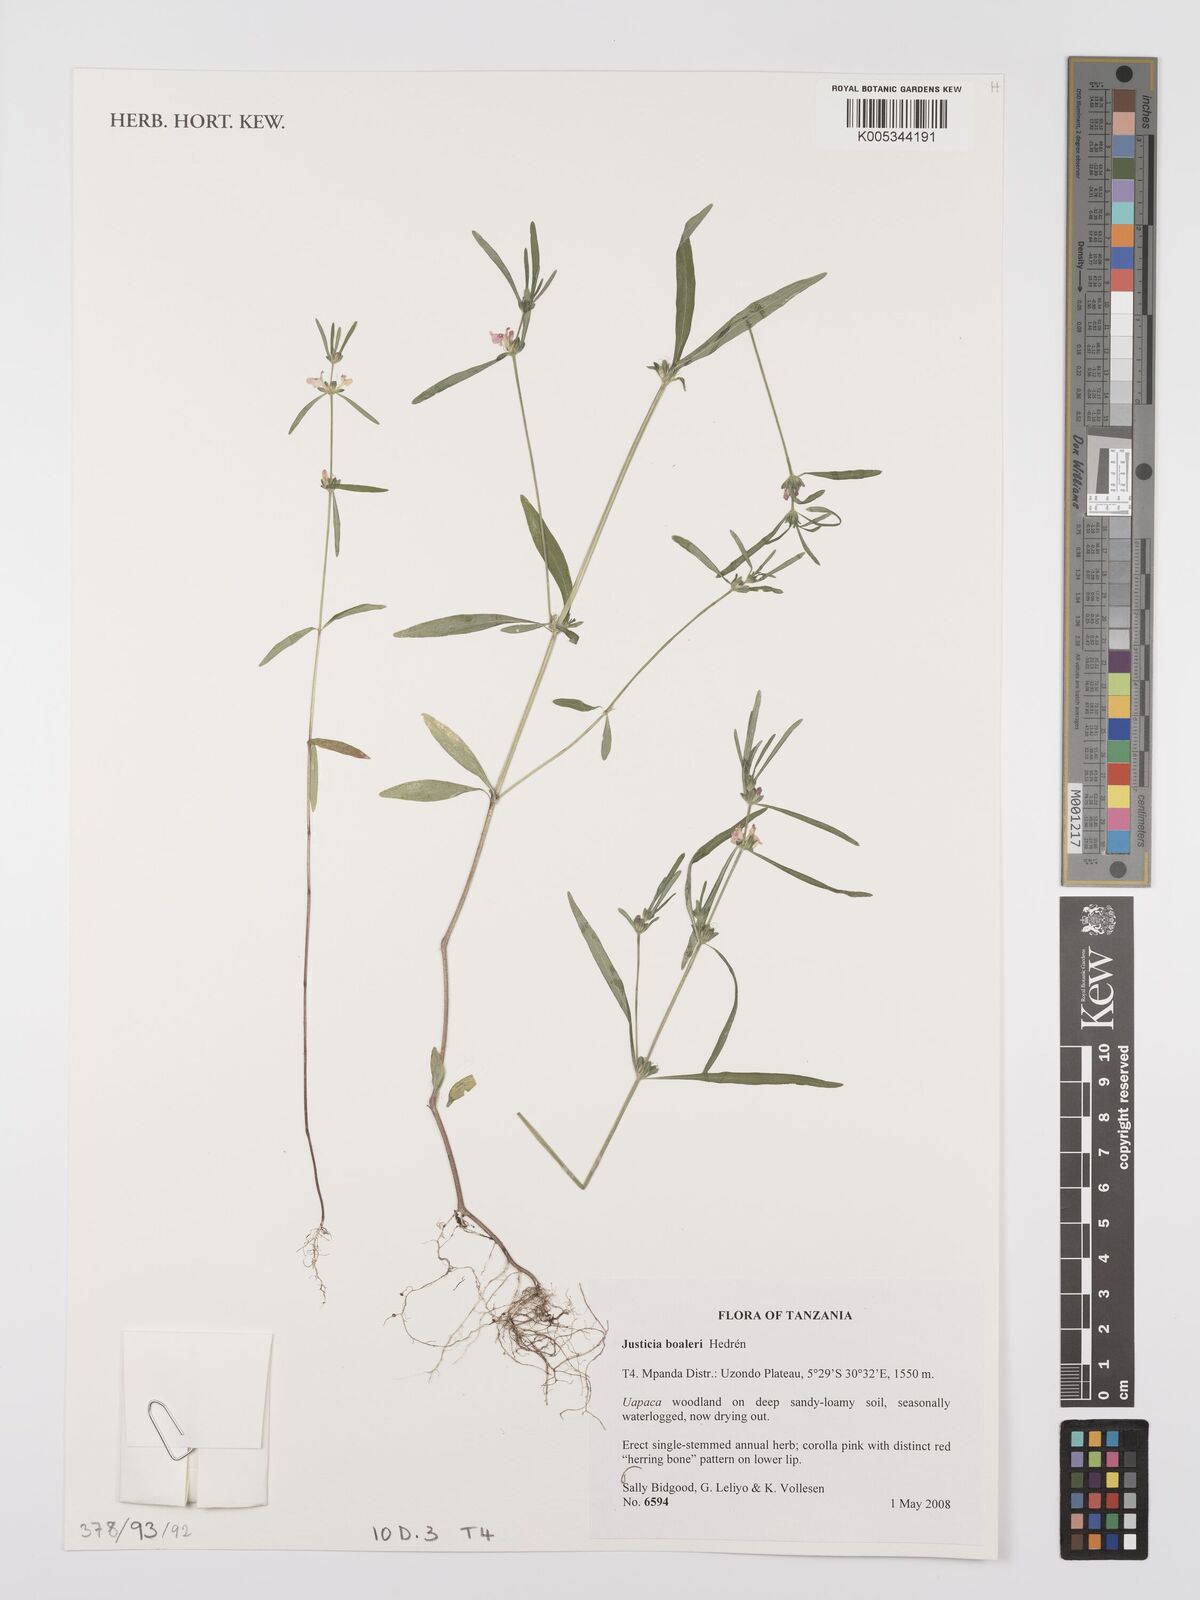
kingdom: Plantae
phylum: Tracheophyta
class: Magnoliopsida
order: Lamiales
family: Acanthaceae
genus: Justicia
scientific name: Justicia boaleri
